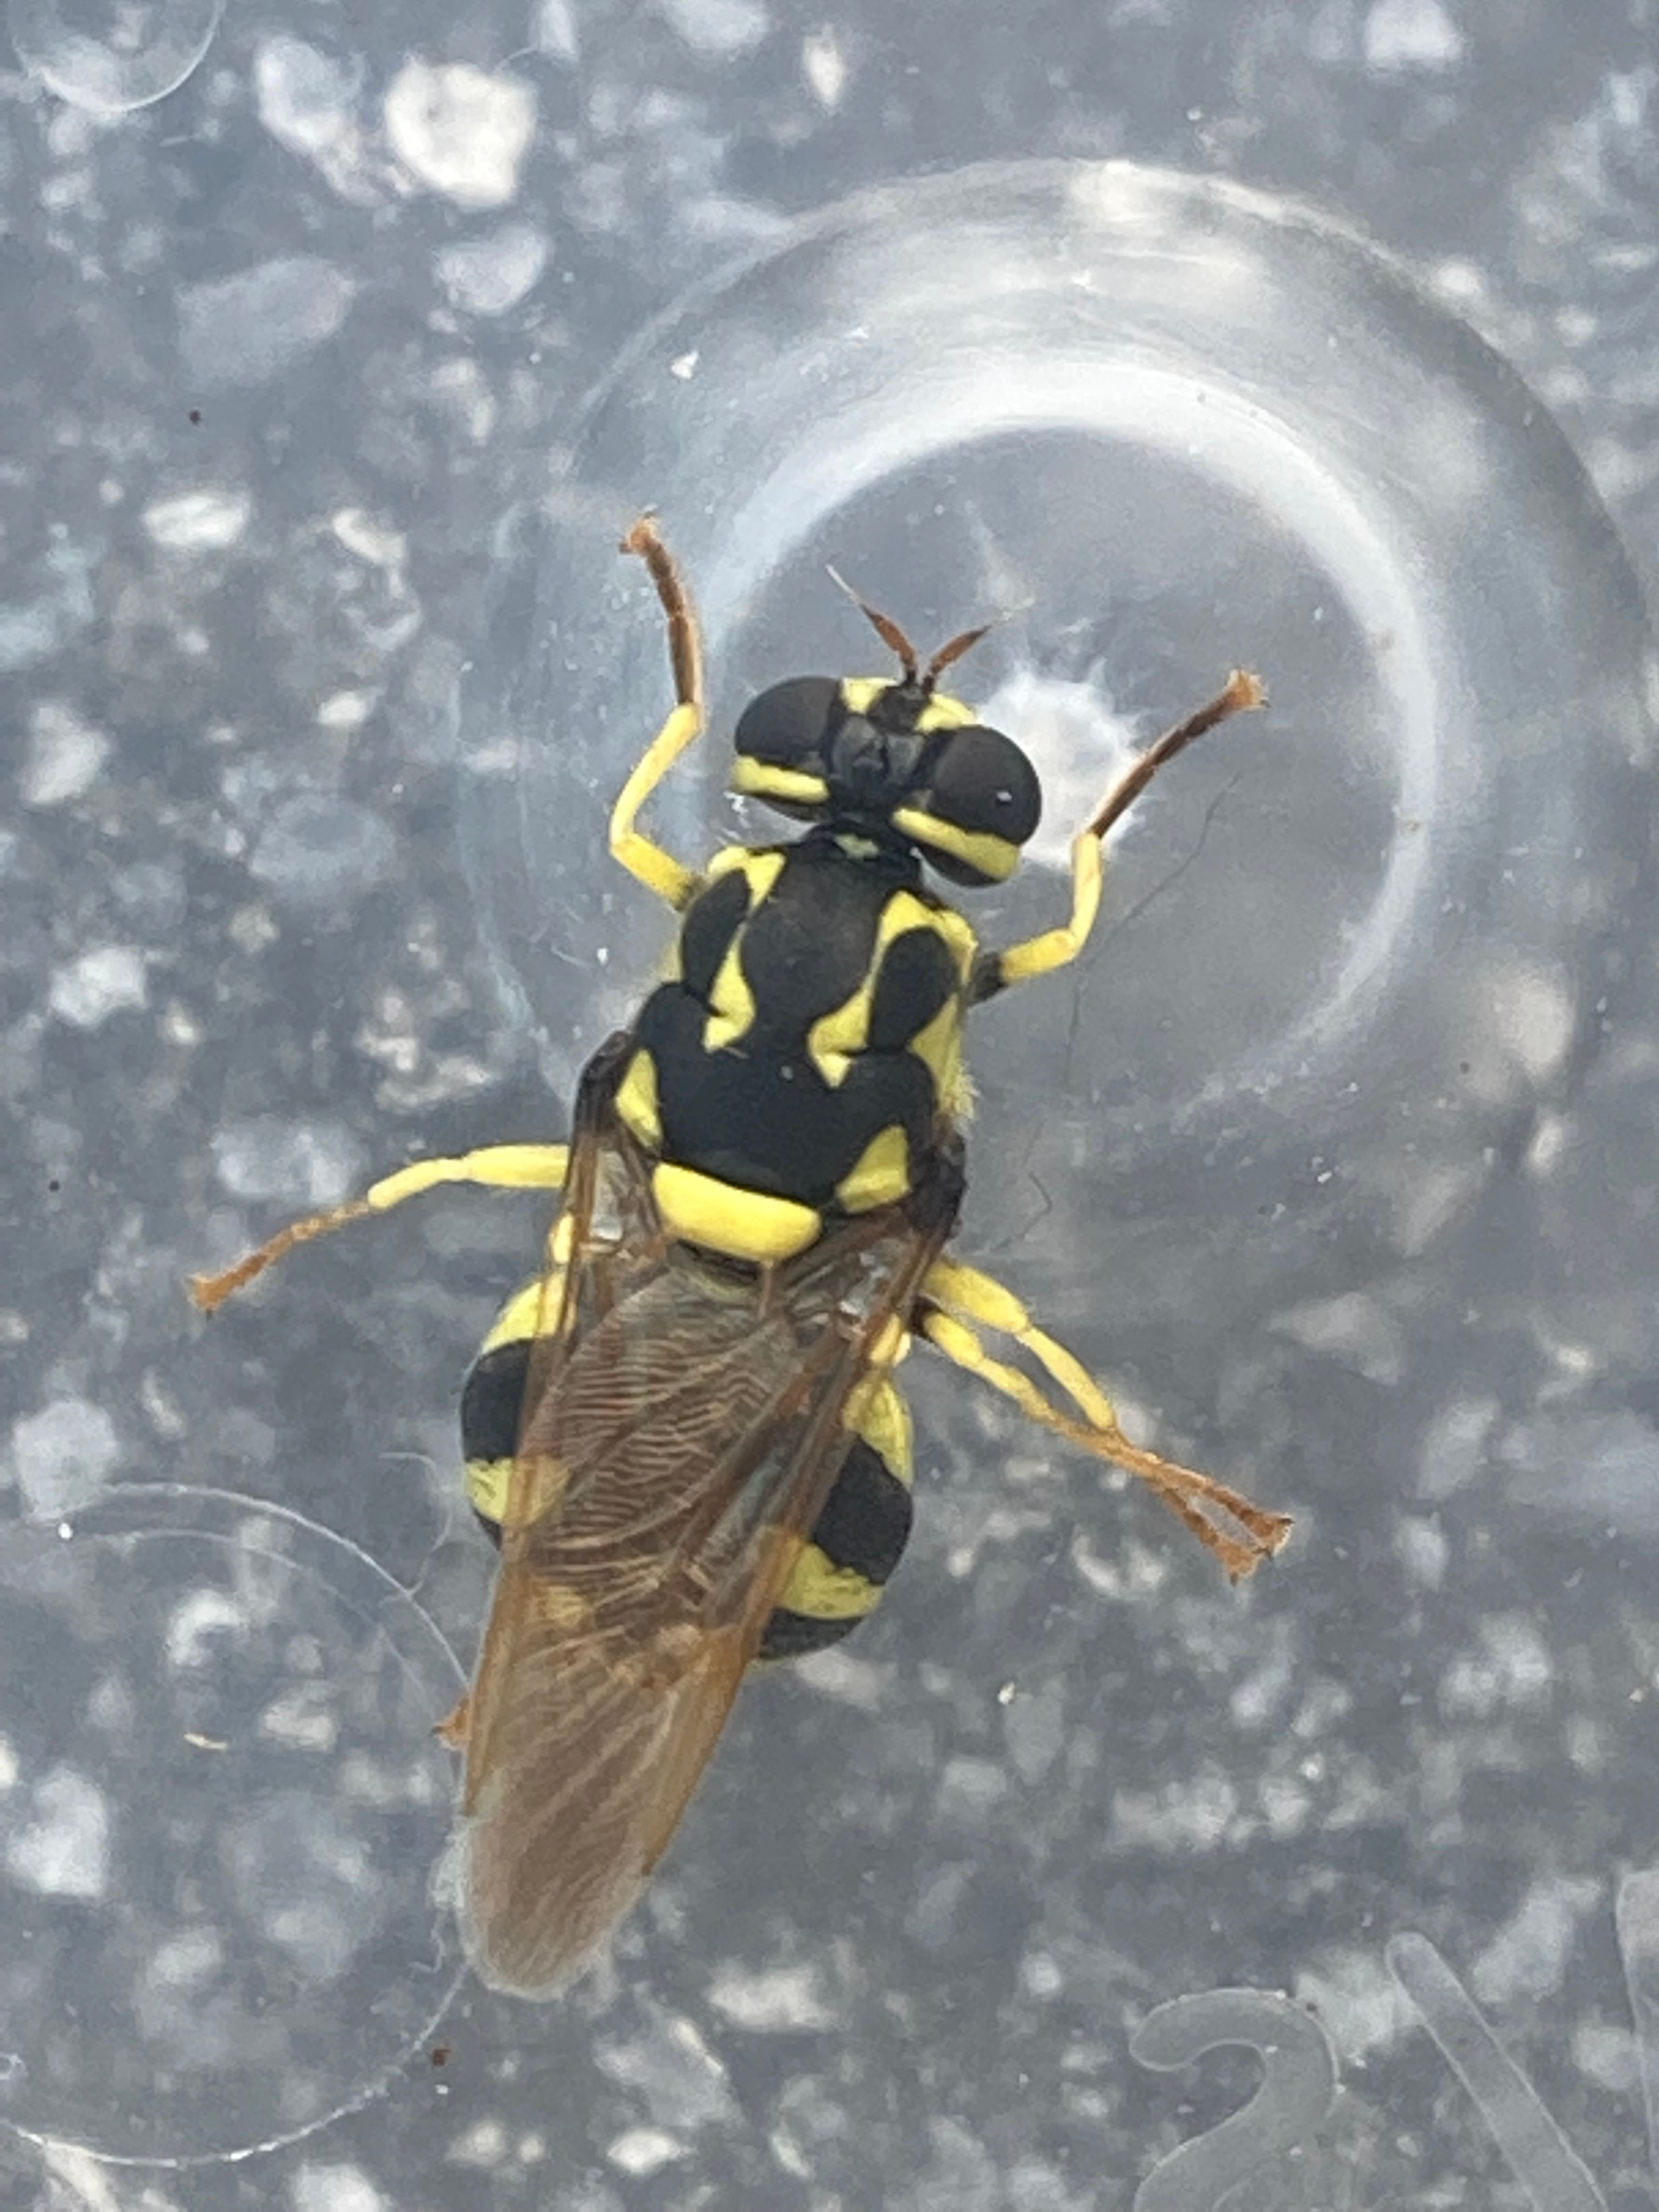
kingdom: Animalia
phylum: Arthropoda
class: Insecta
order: Diptera
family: Stratiomyidae
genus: Oxycera
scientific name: Oxycera meigenii
